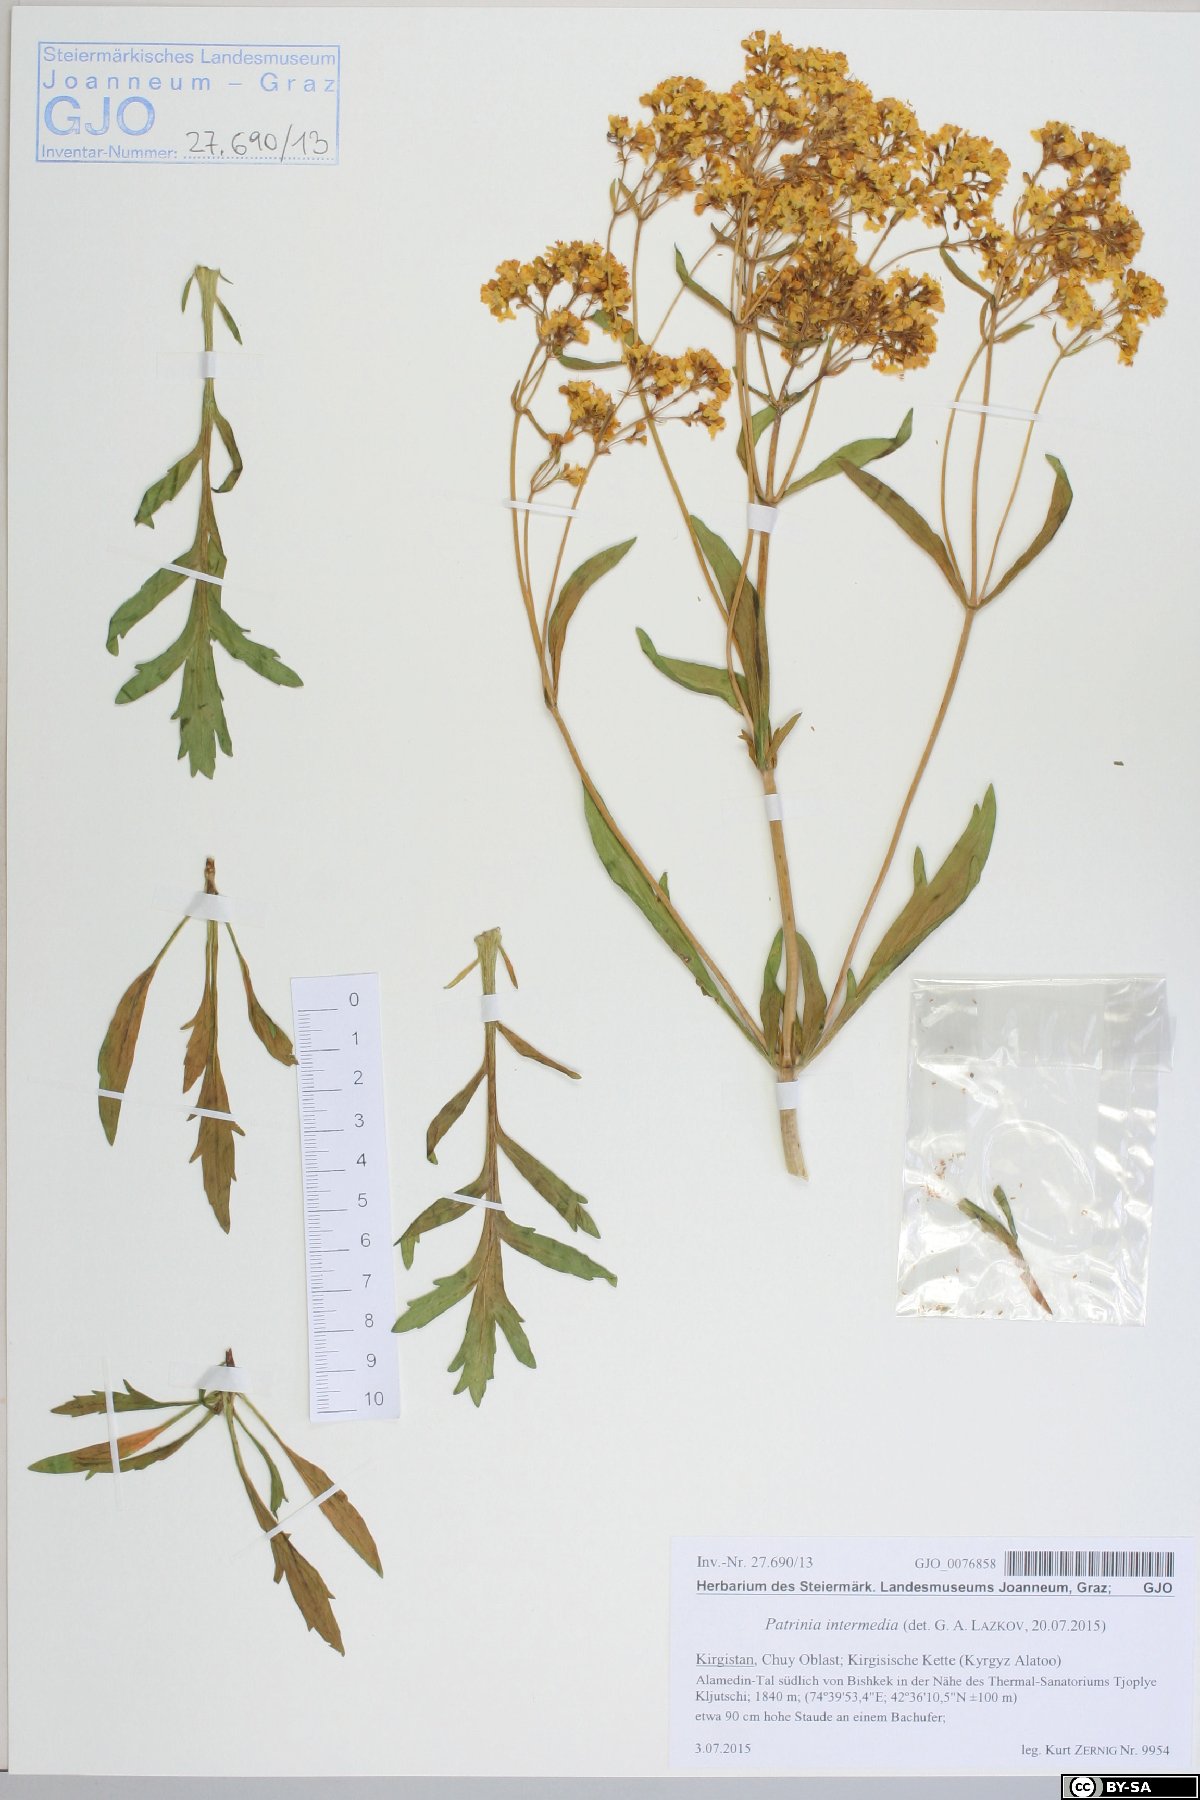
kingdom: Plantae
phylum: Tracheophyta
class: Magnoliopsida
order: Dipsacales
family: Caprifoliaceae
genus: Patrinia
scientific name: Patrinia intermedia
